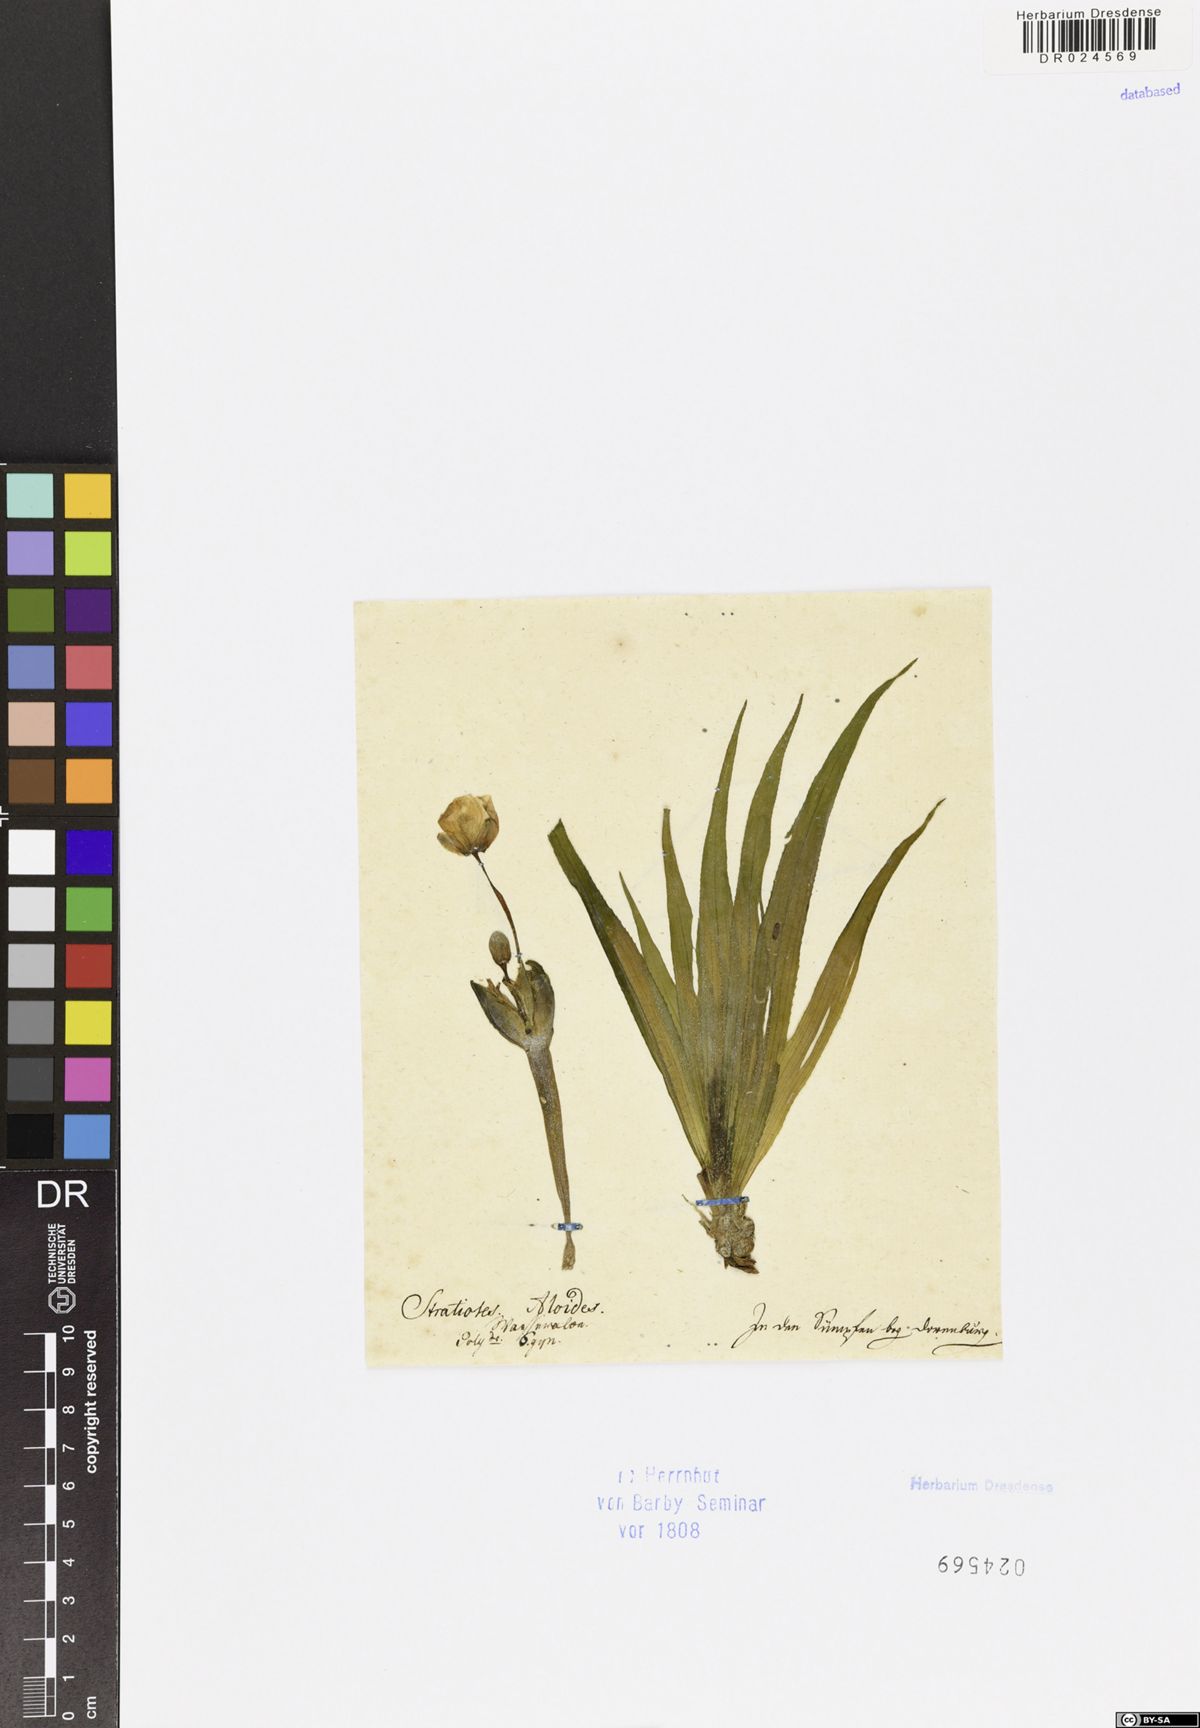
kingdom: Plantae
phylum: Tracheophyta
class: Liliopsida
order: Alismatales
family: Hydrocharitaceae
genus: Stratiotes
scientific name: Stratiotes aloides
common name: Water-soldier
